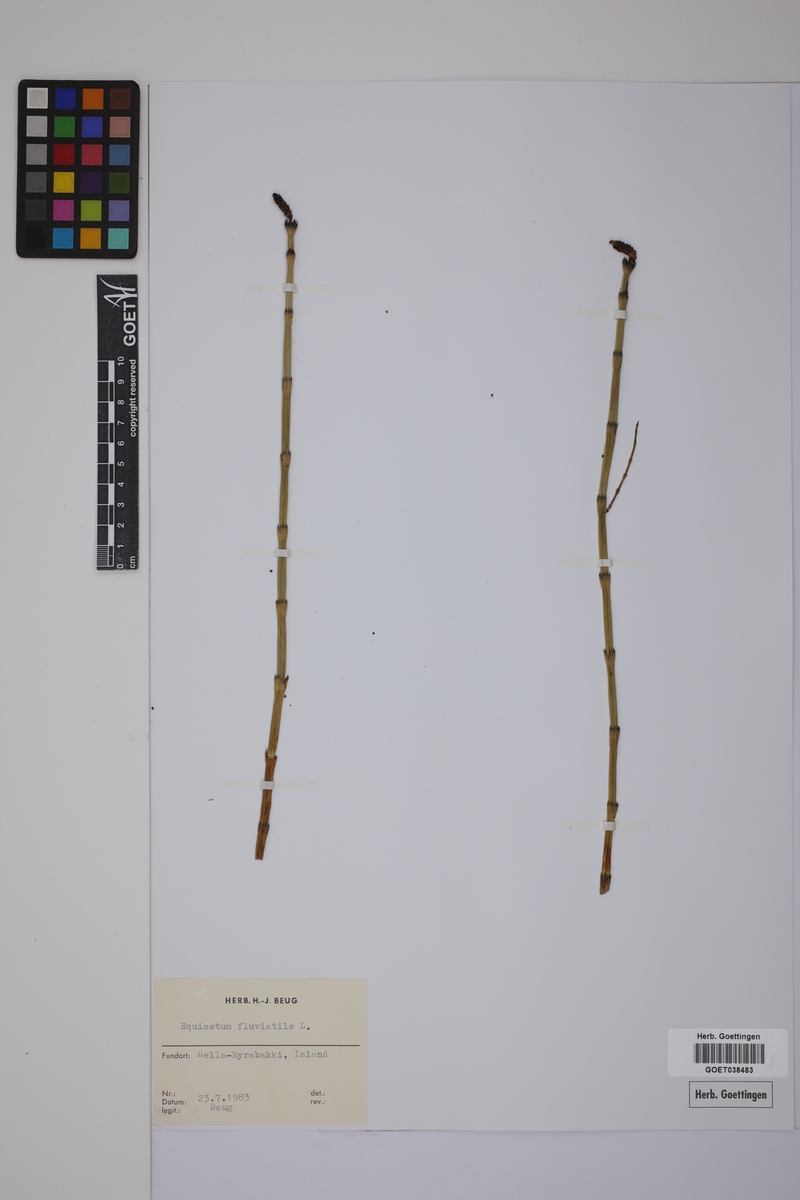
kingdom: Plantae
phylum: Tracheophyta
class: Polypodiopsida
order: Equisetales
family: Equisetaceae
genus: Equisetum
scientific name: Equisetum fluviatile
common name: Water horsetail
